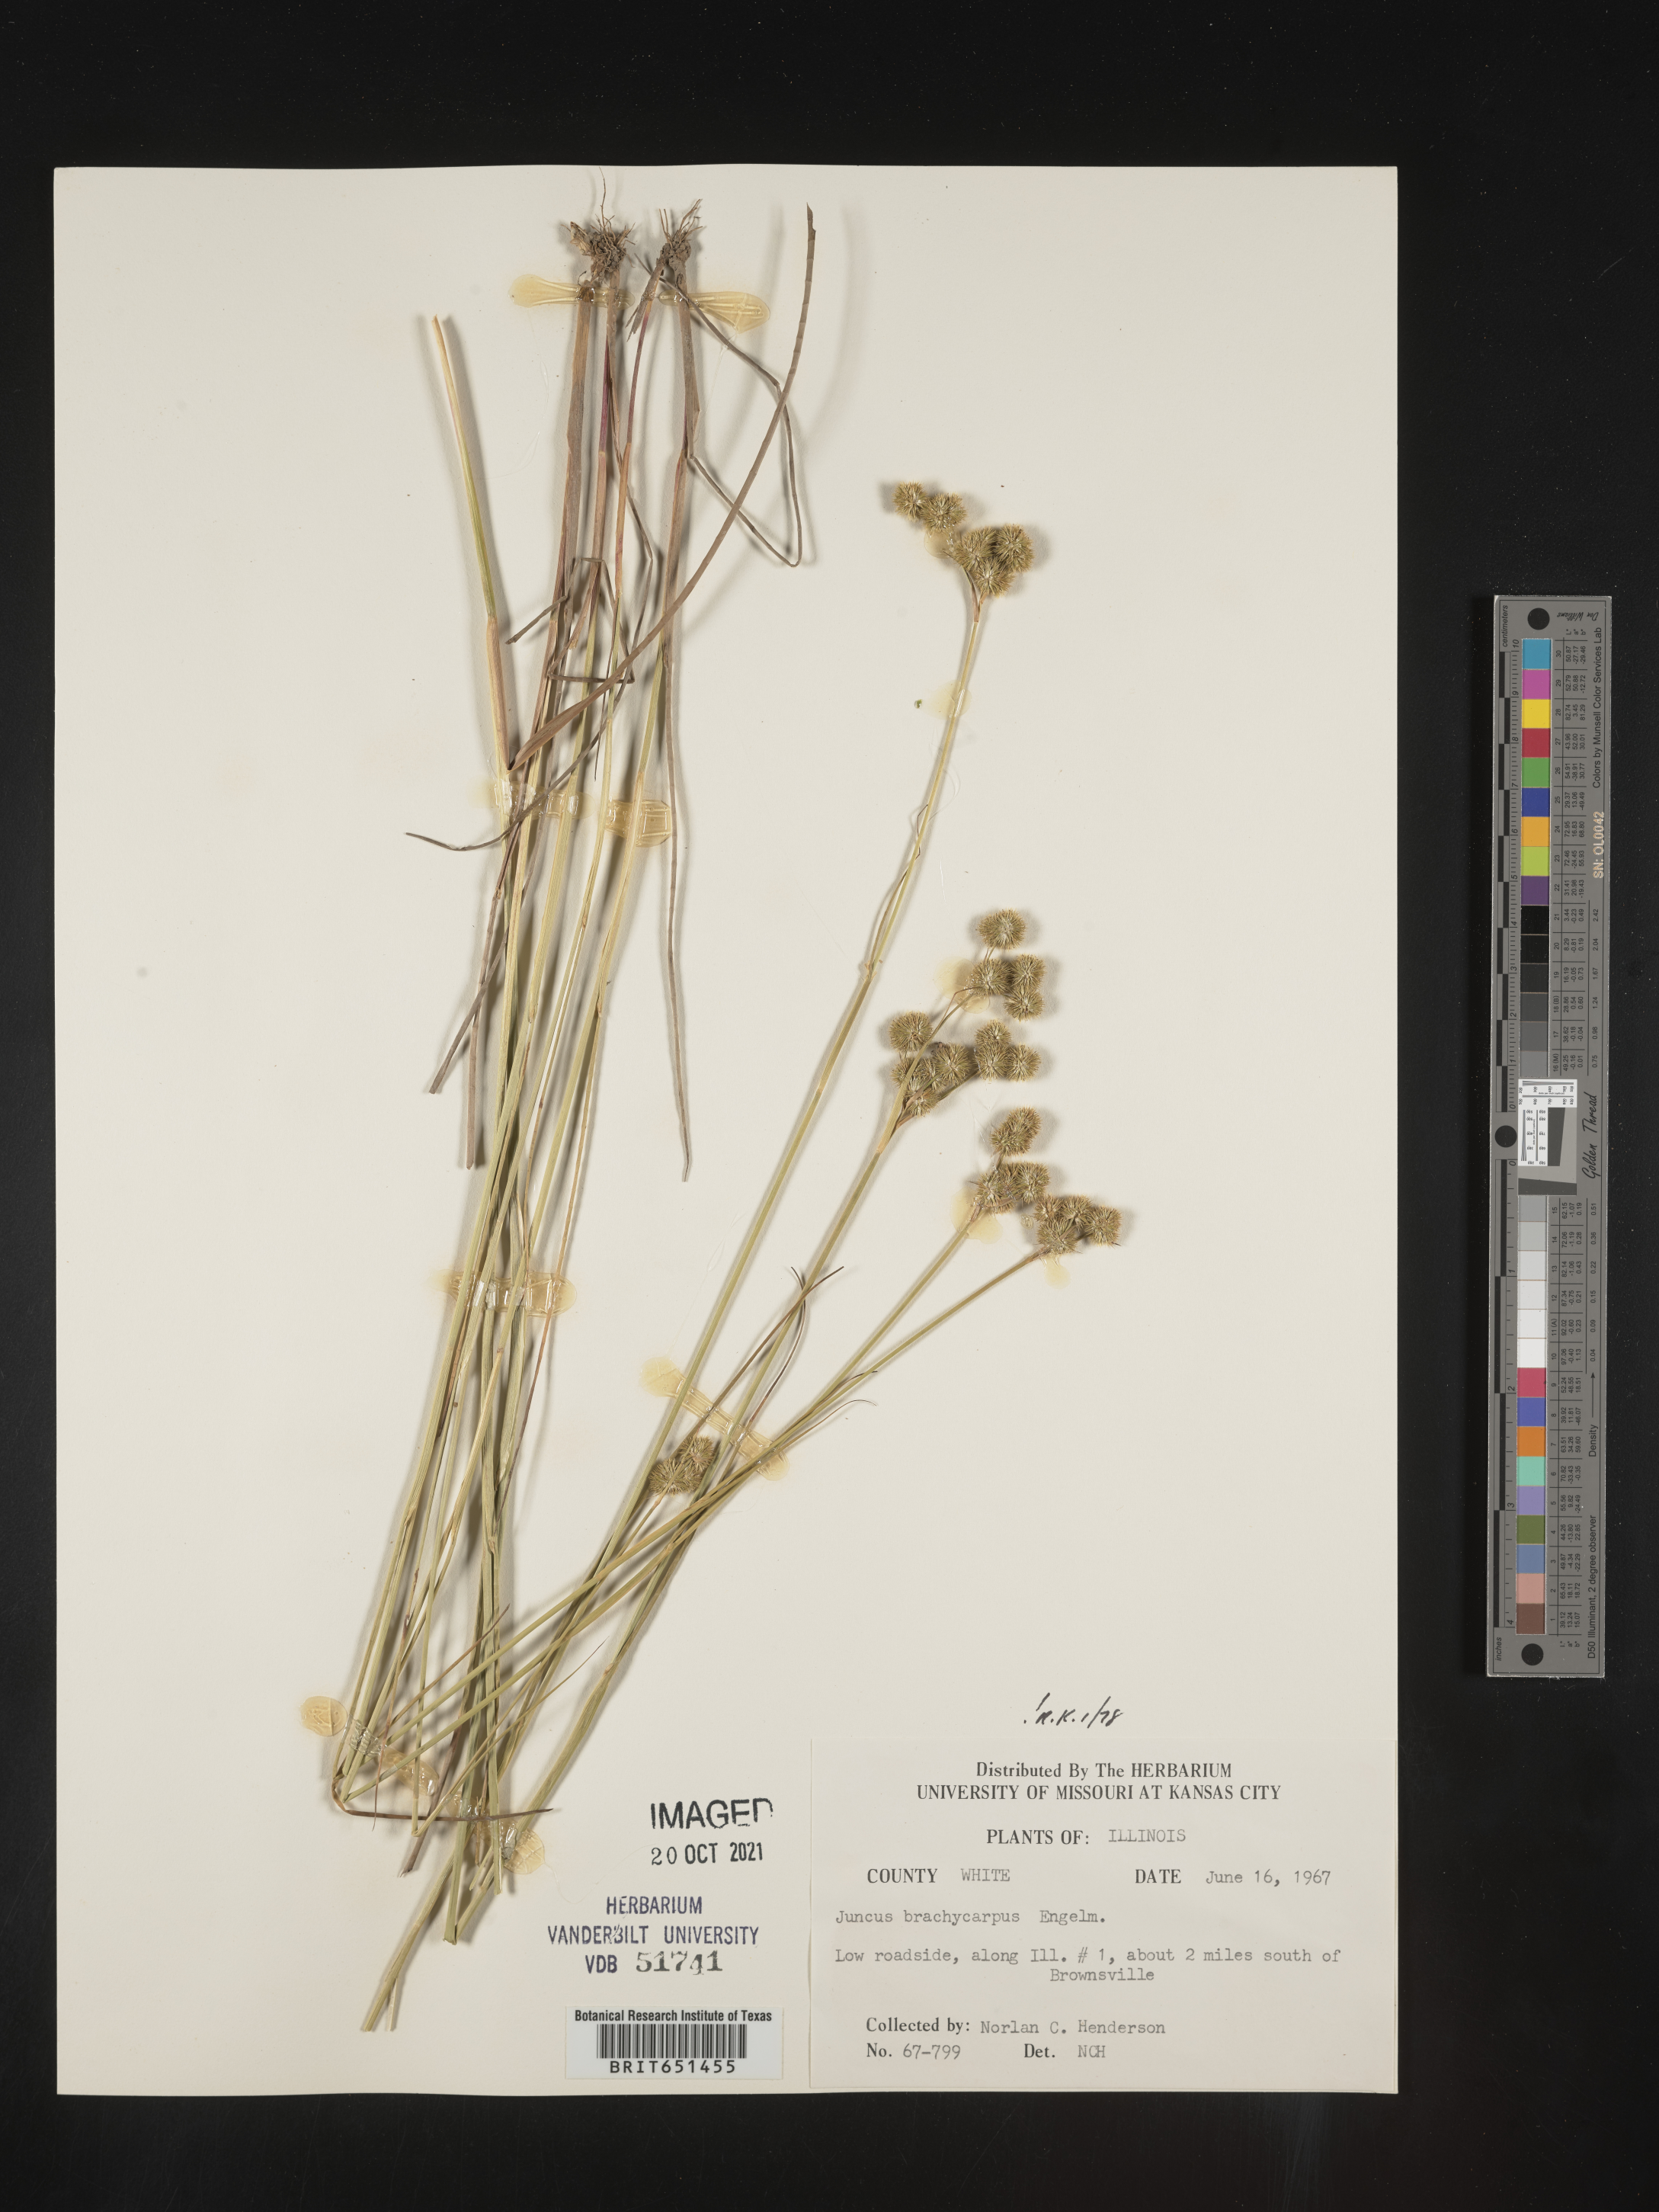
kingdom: Plantae
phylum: Tracheophyta
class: Liliopsida
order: Poales
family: Juncaceae
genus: Juncus
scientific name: Juncus brachycarpus
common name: Shore rush
